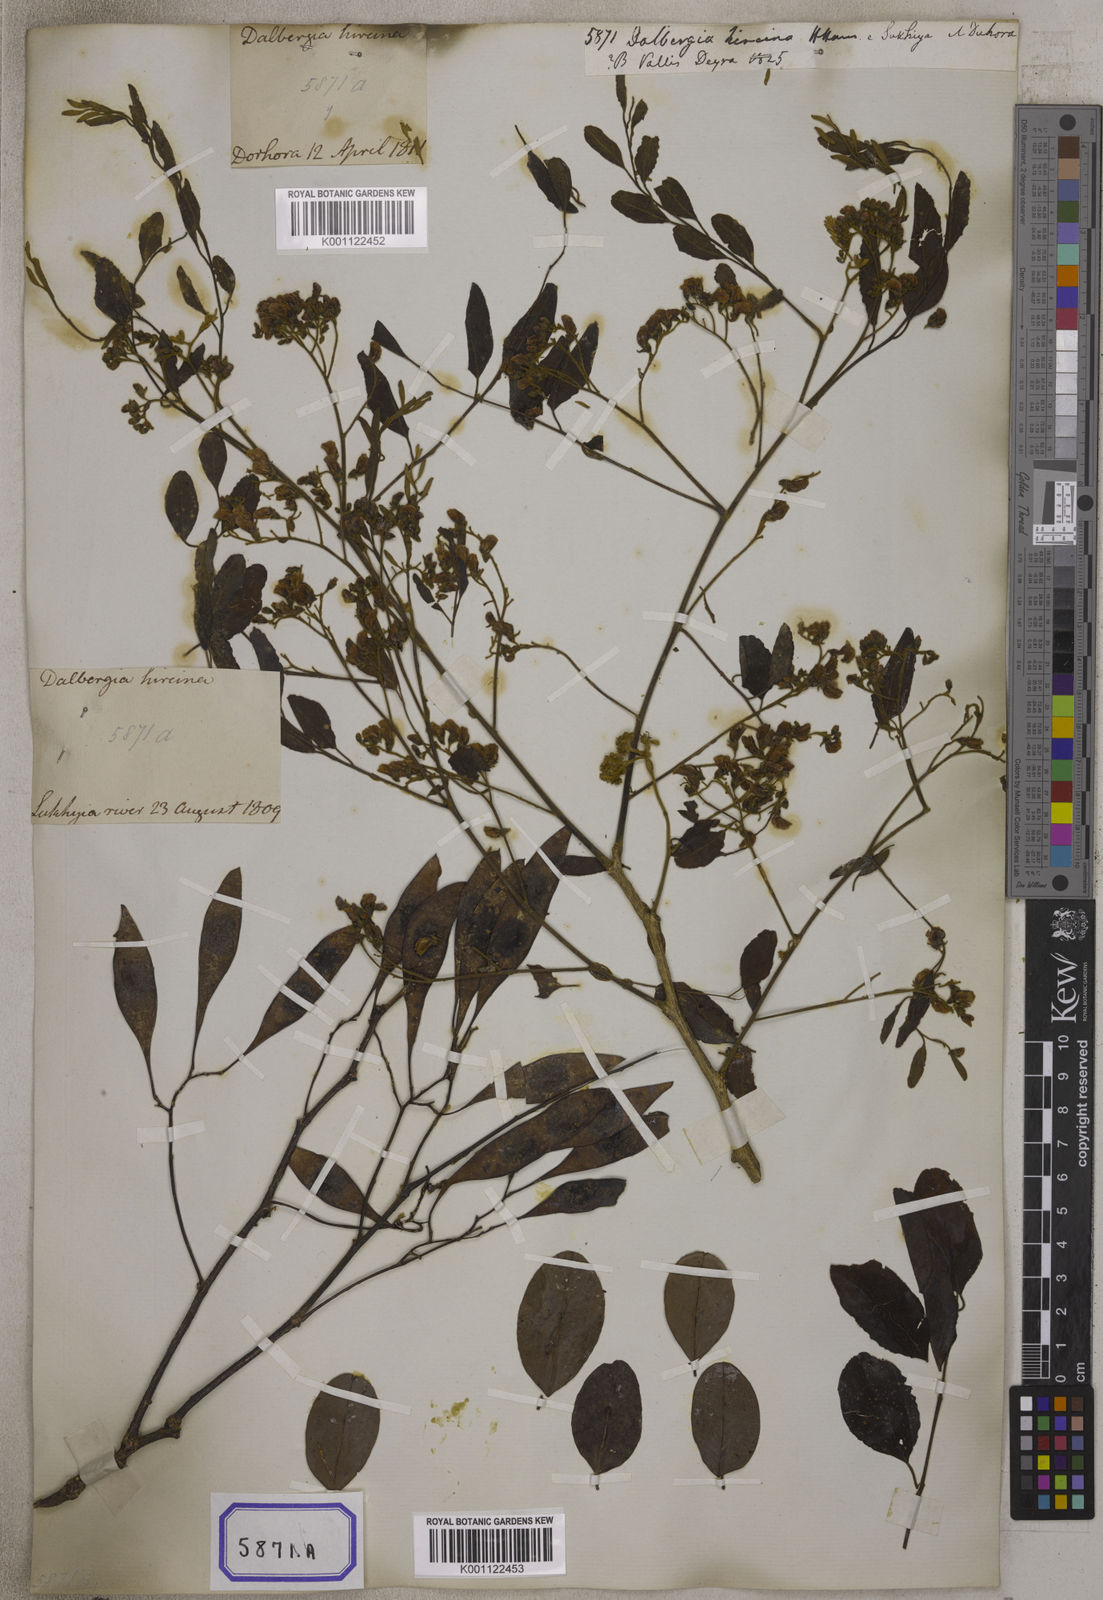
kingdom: Plantae
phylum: Tracheophyta
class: Magnoliopsida
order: Fabales
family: Fabaceae
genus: Dalbergia
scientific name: Dalbergia
